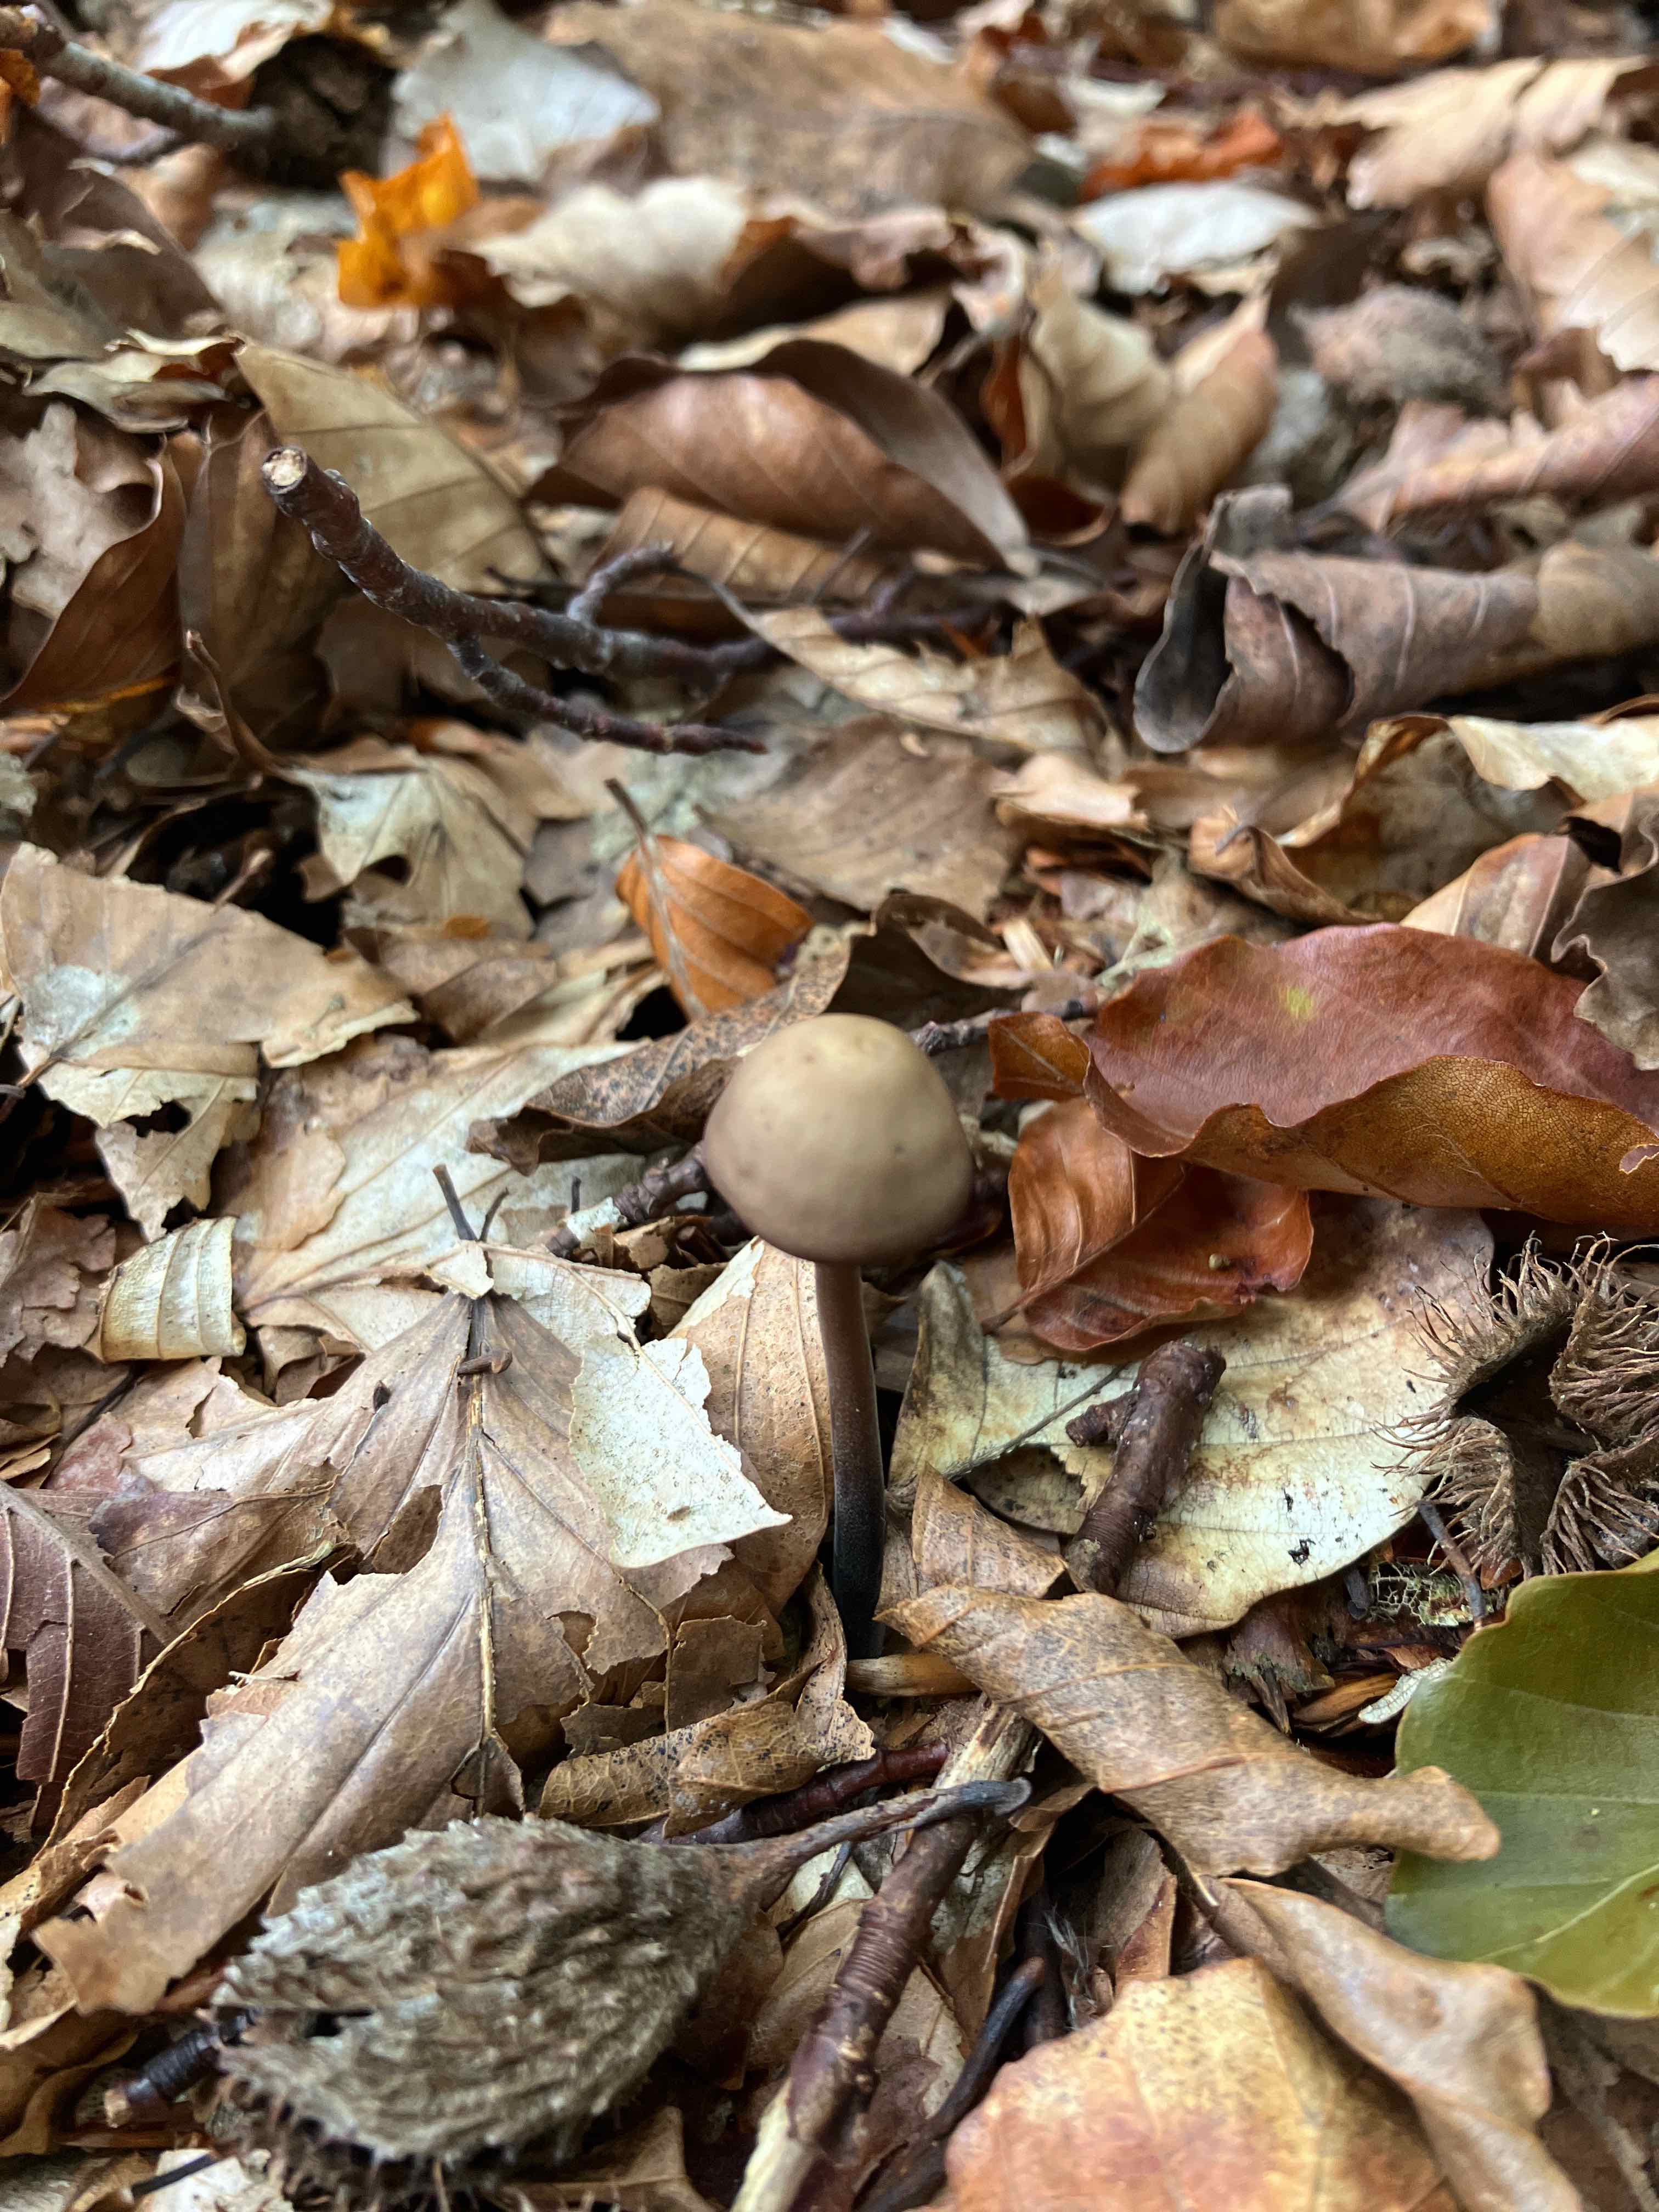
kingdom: Fungi
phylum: Basidiomycota
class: Agaricomycetes
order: Agaricales
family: Omphalotaceae
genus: Mycetinis
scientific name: Mycetinis alliaceus
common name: stor løghat
